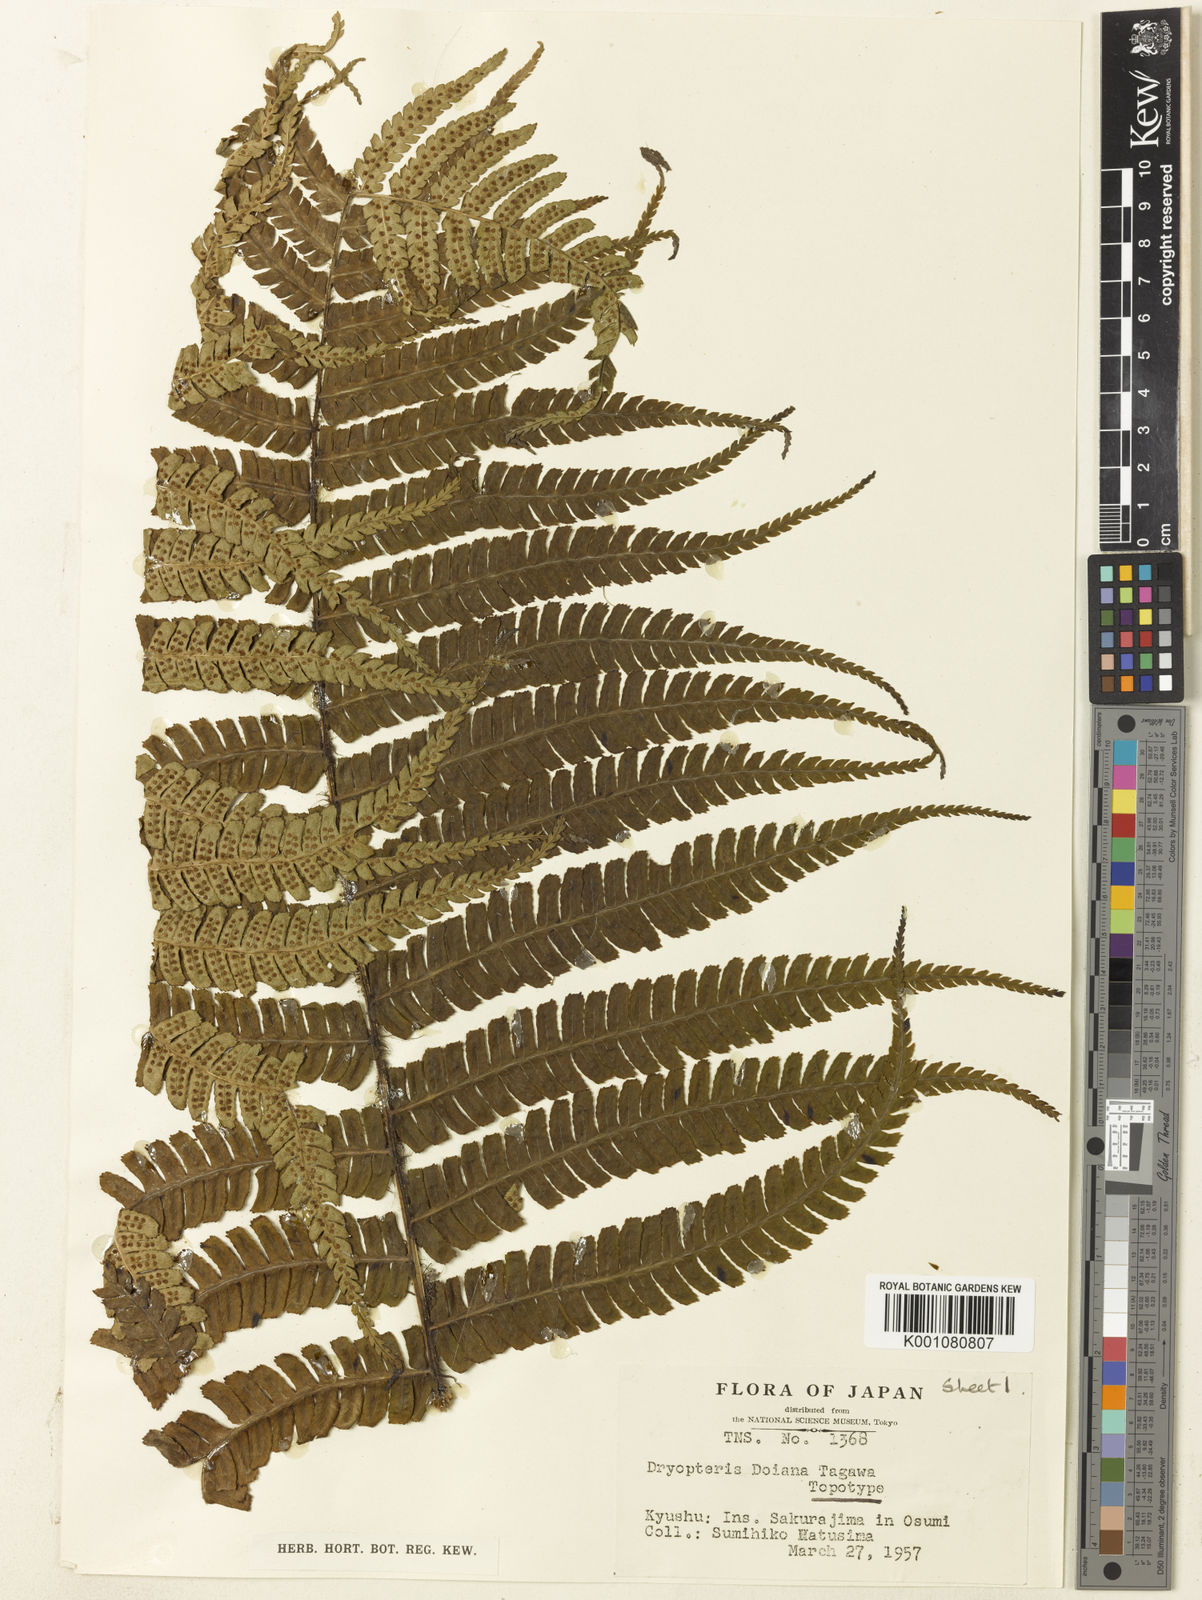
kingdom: Plantae
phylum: Tracheophyta
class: Polypodiopsida
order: Polypodiales
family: Dryopteridaceae
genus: Dryopteris
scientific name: Dryopteris wallichiana
